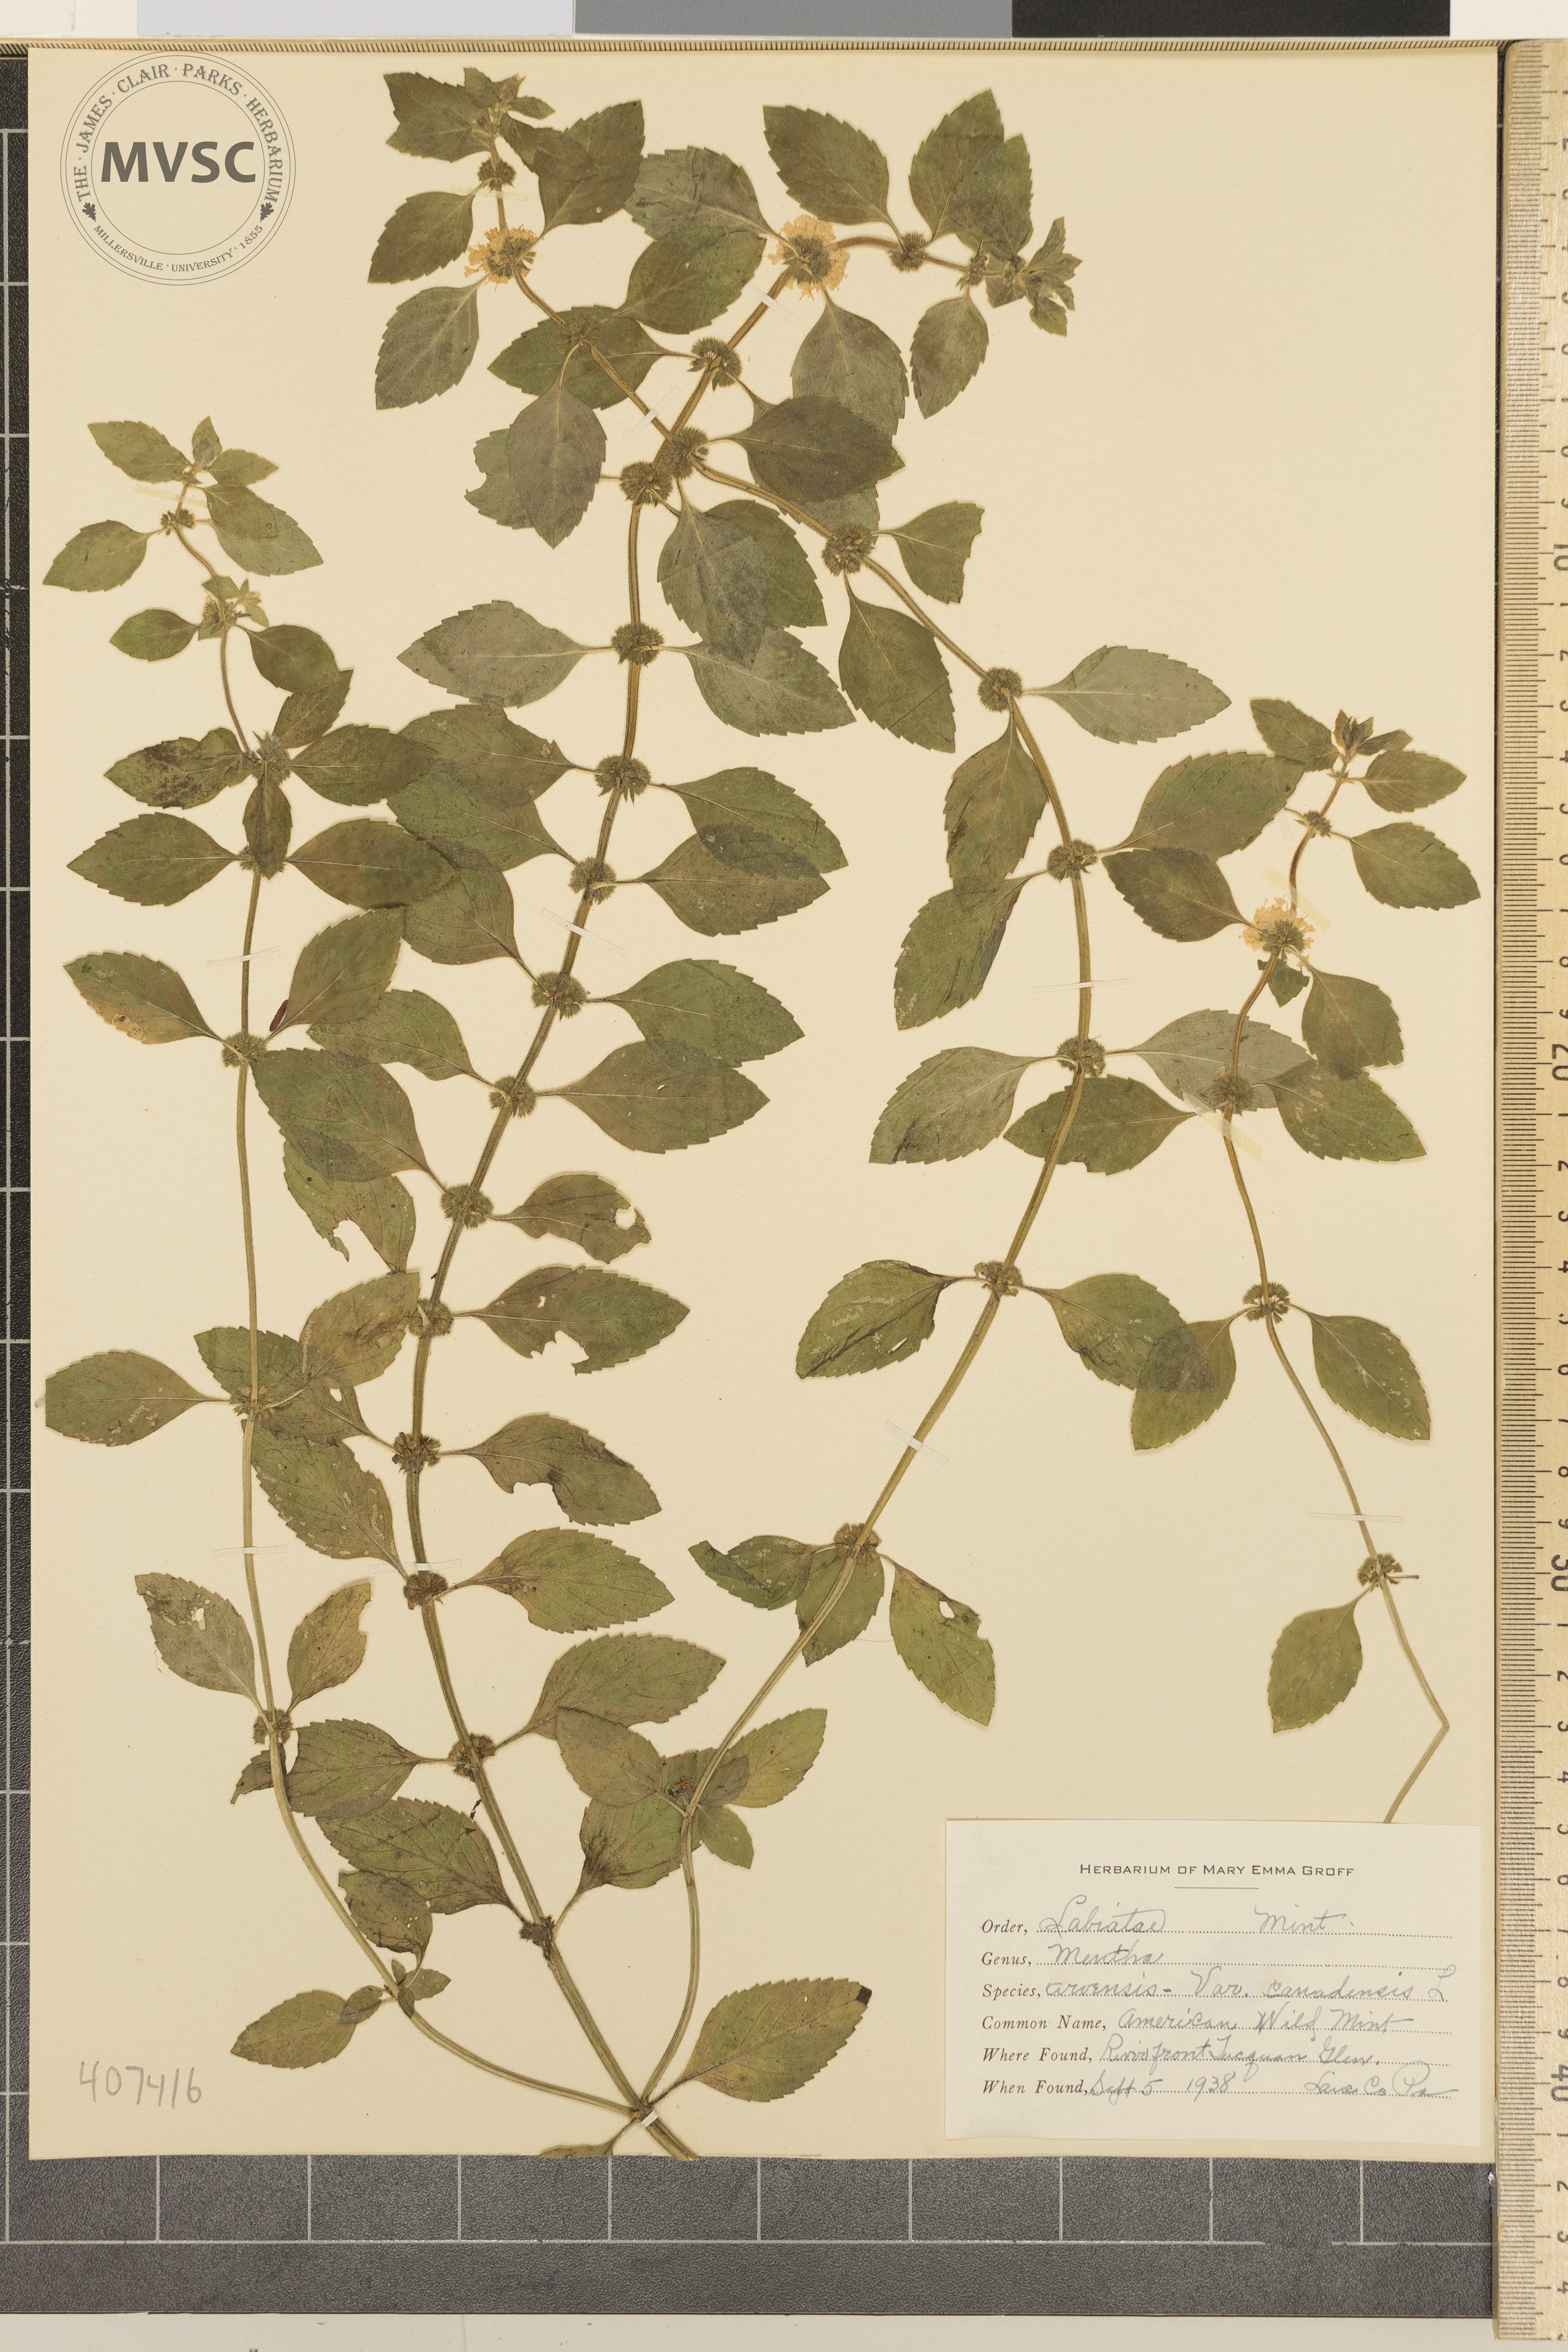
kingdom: Plantae
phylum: Tracheophyta
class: Magnoliopsida
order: Lamiales
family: Lamiaceae
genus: Mentha
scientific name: Mentha arvensis
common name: American Wild Mint
